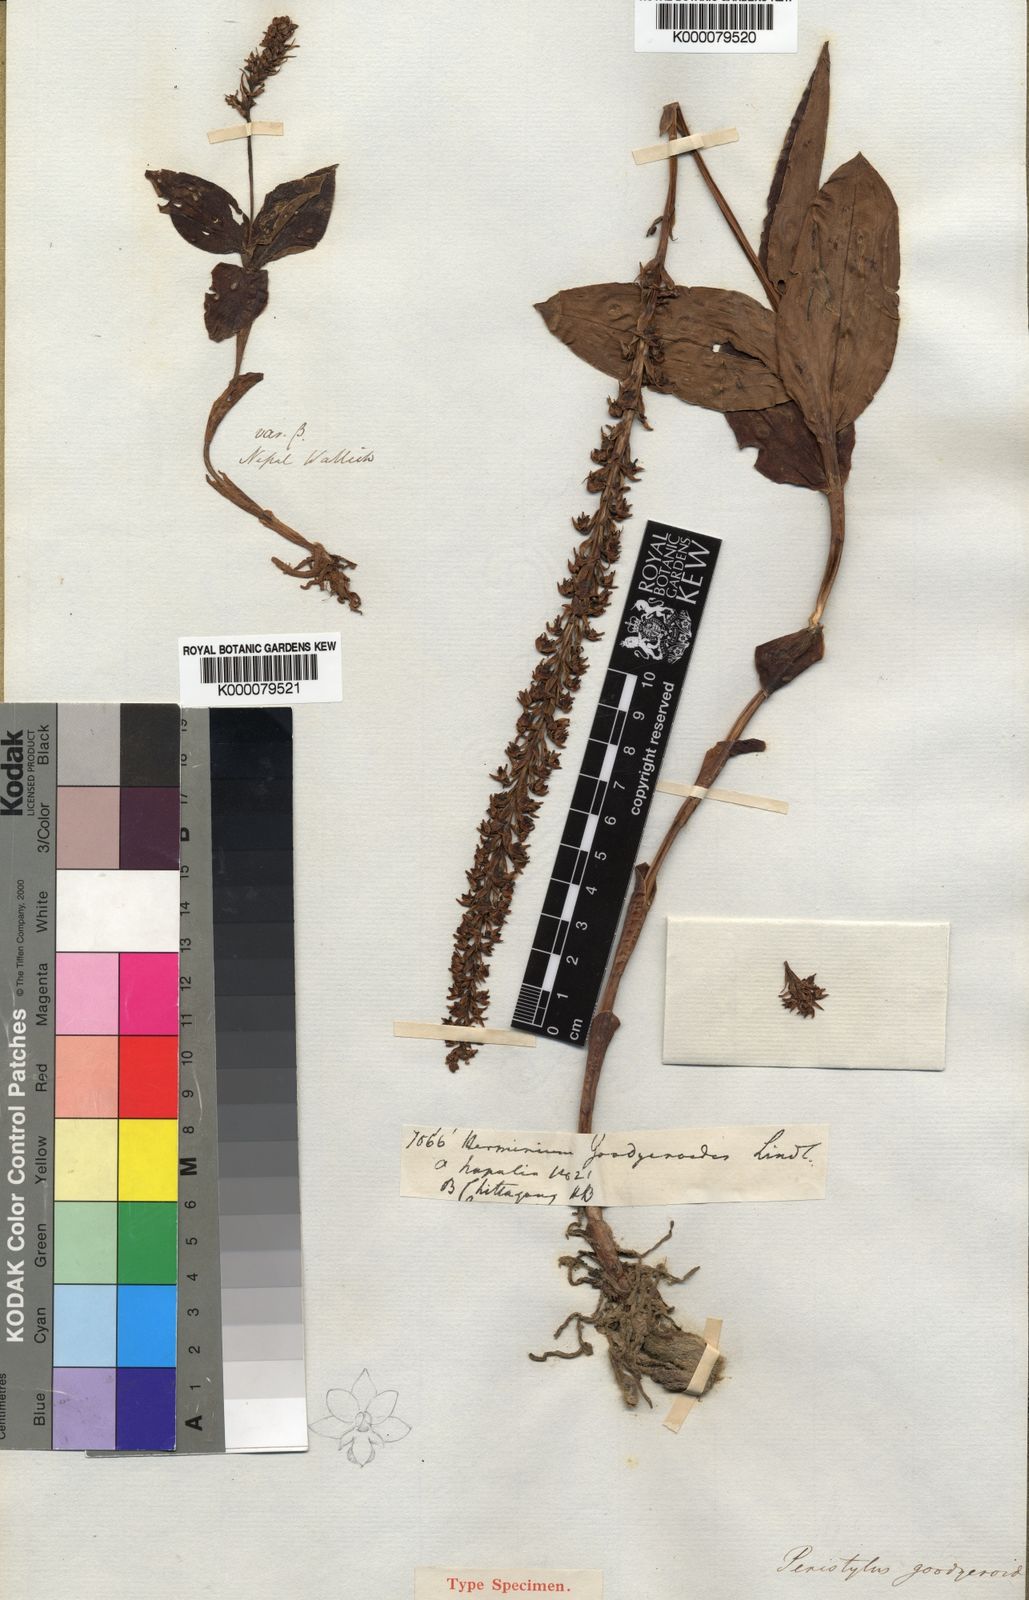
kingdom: Plantae
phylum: Tracheophyta
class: Liliopsida
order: Asparagales
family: Orchidaceae
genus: Peristylus
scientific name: Peristylus goodyeroides
